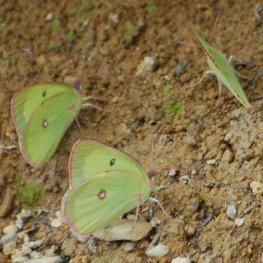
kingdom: Animalia
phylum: Arthropoda
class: Insecta
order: Lepidoptera
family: Pieridae
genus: Colias
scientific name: Colias interior
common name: Pink-edged Sulphur
